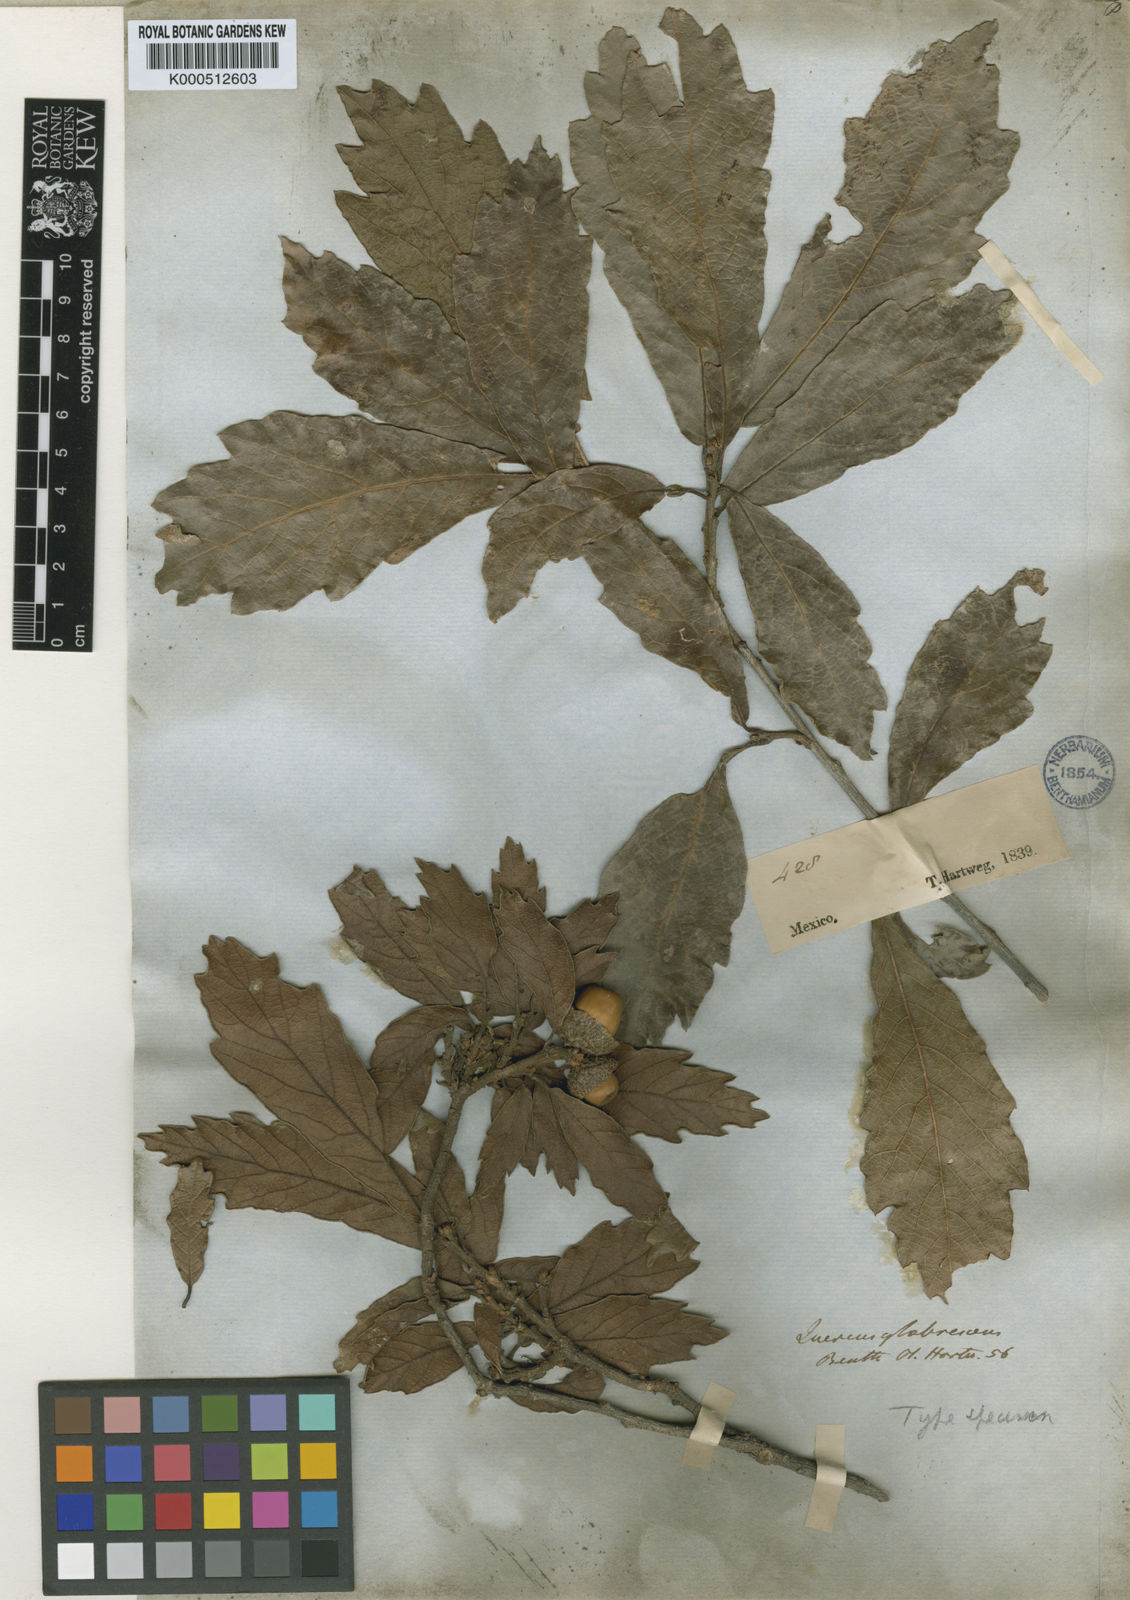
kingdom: Plantae
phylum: Tracheophyta
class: Magnoliopsida
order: Fagales
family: Fagaceae
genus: Quercus
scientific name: Quercus glabrescens
